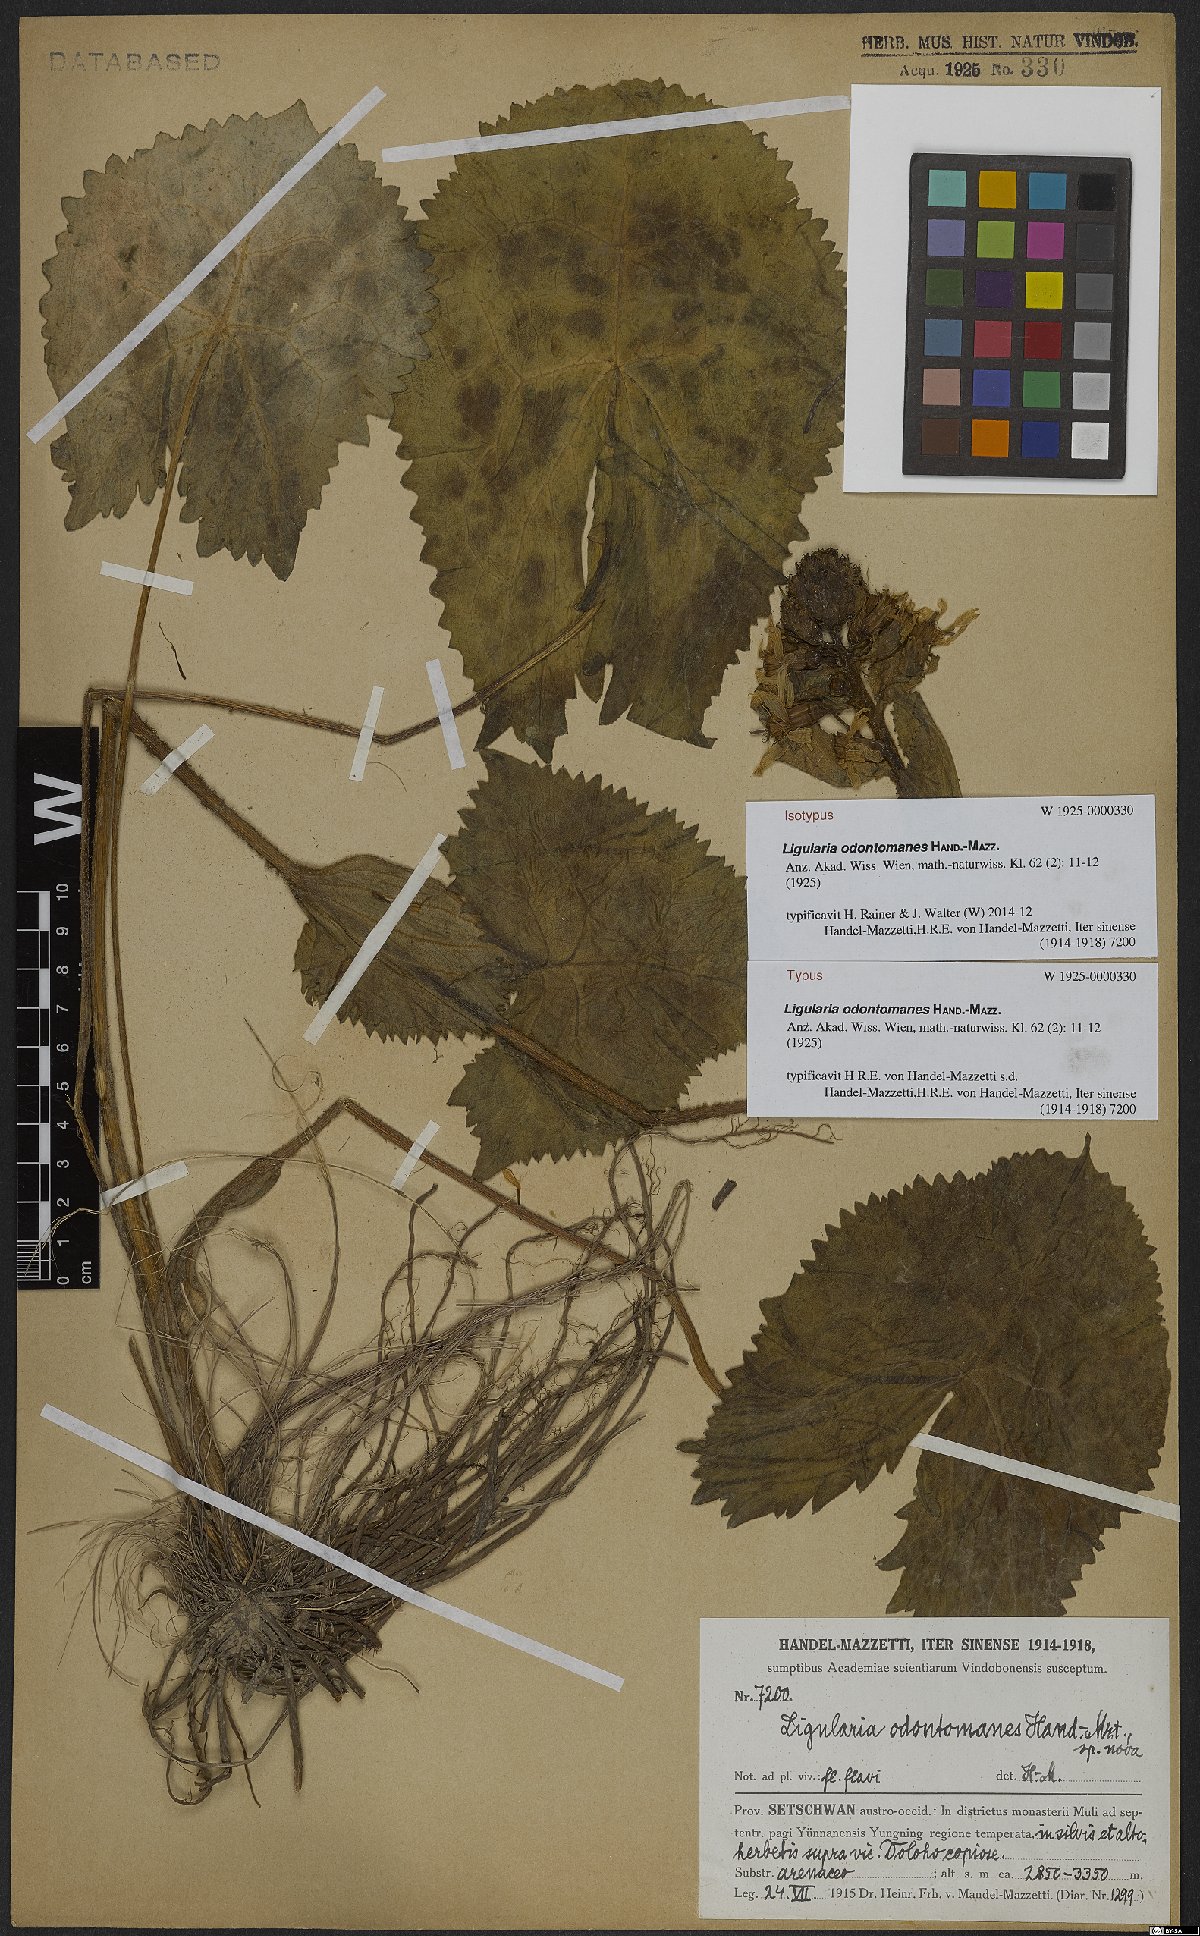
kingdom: Plantae
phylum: Tracheophyta
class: Magnoliopsida
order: Asterales
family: Asteraceae
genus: Ligularia
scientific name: Ligularia odontomanes
